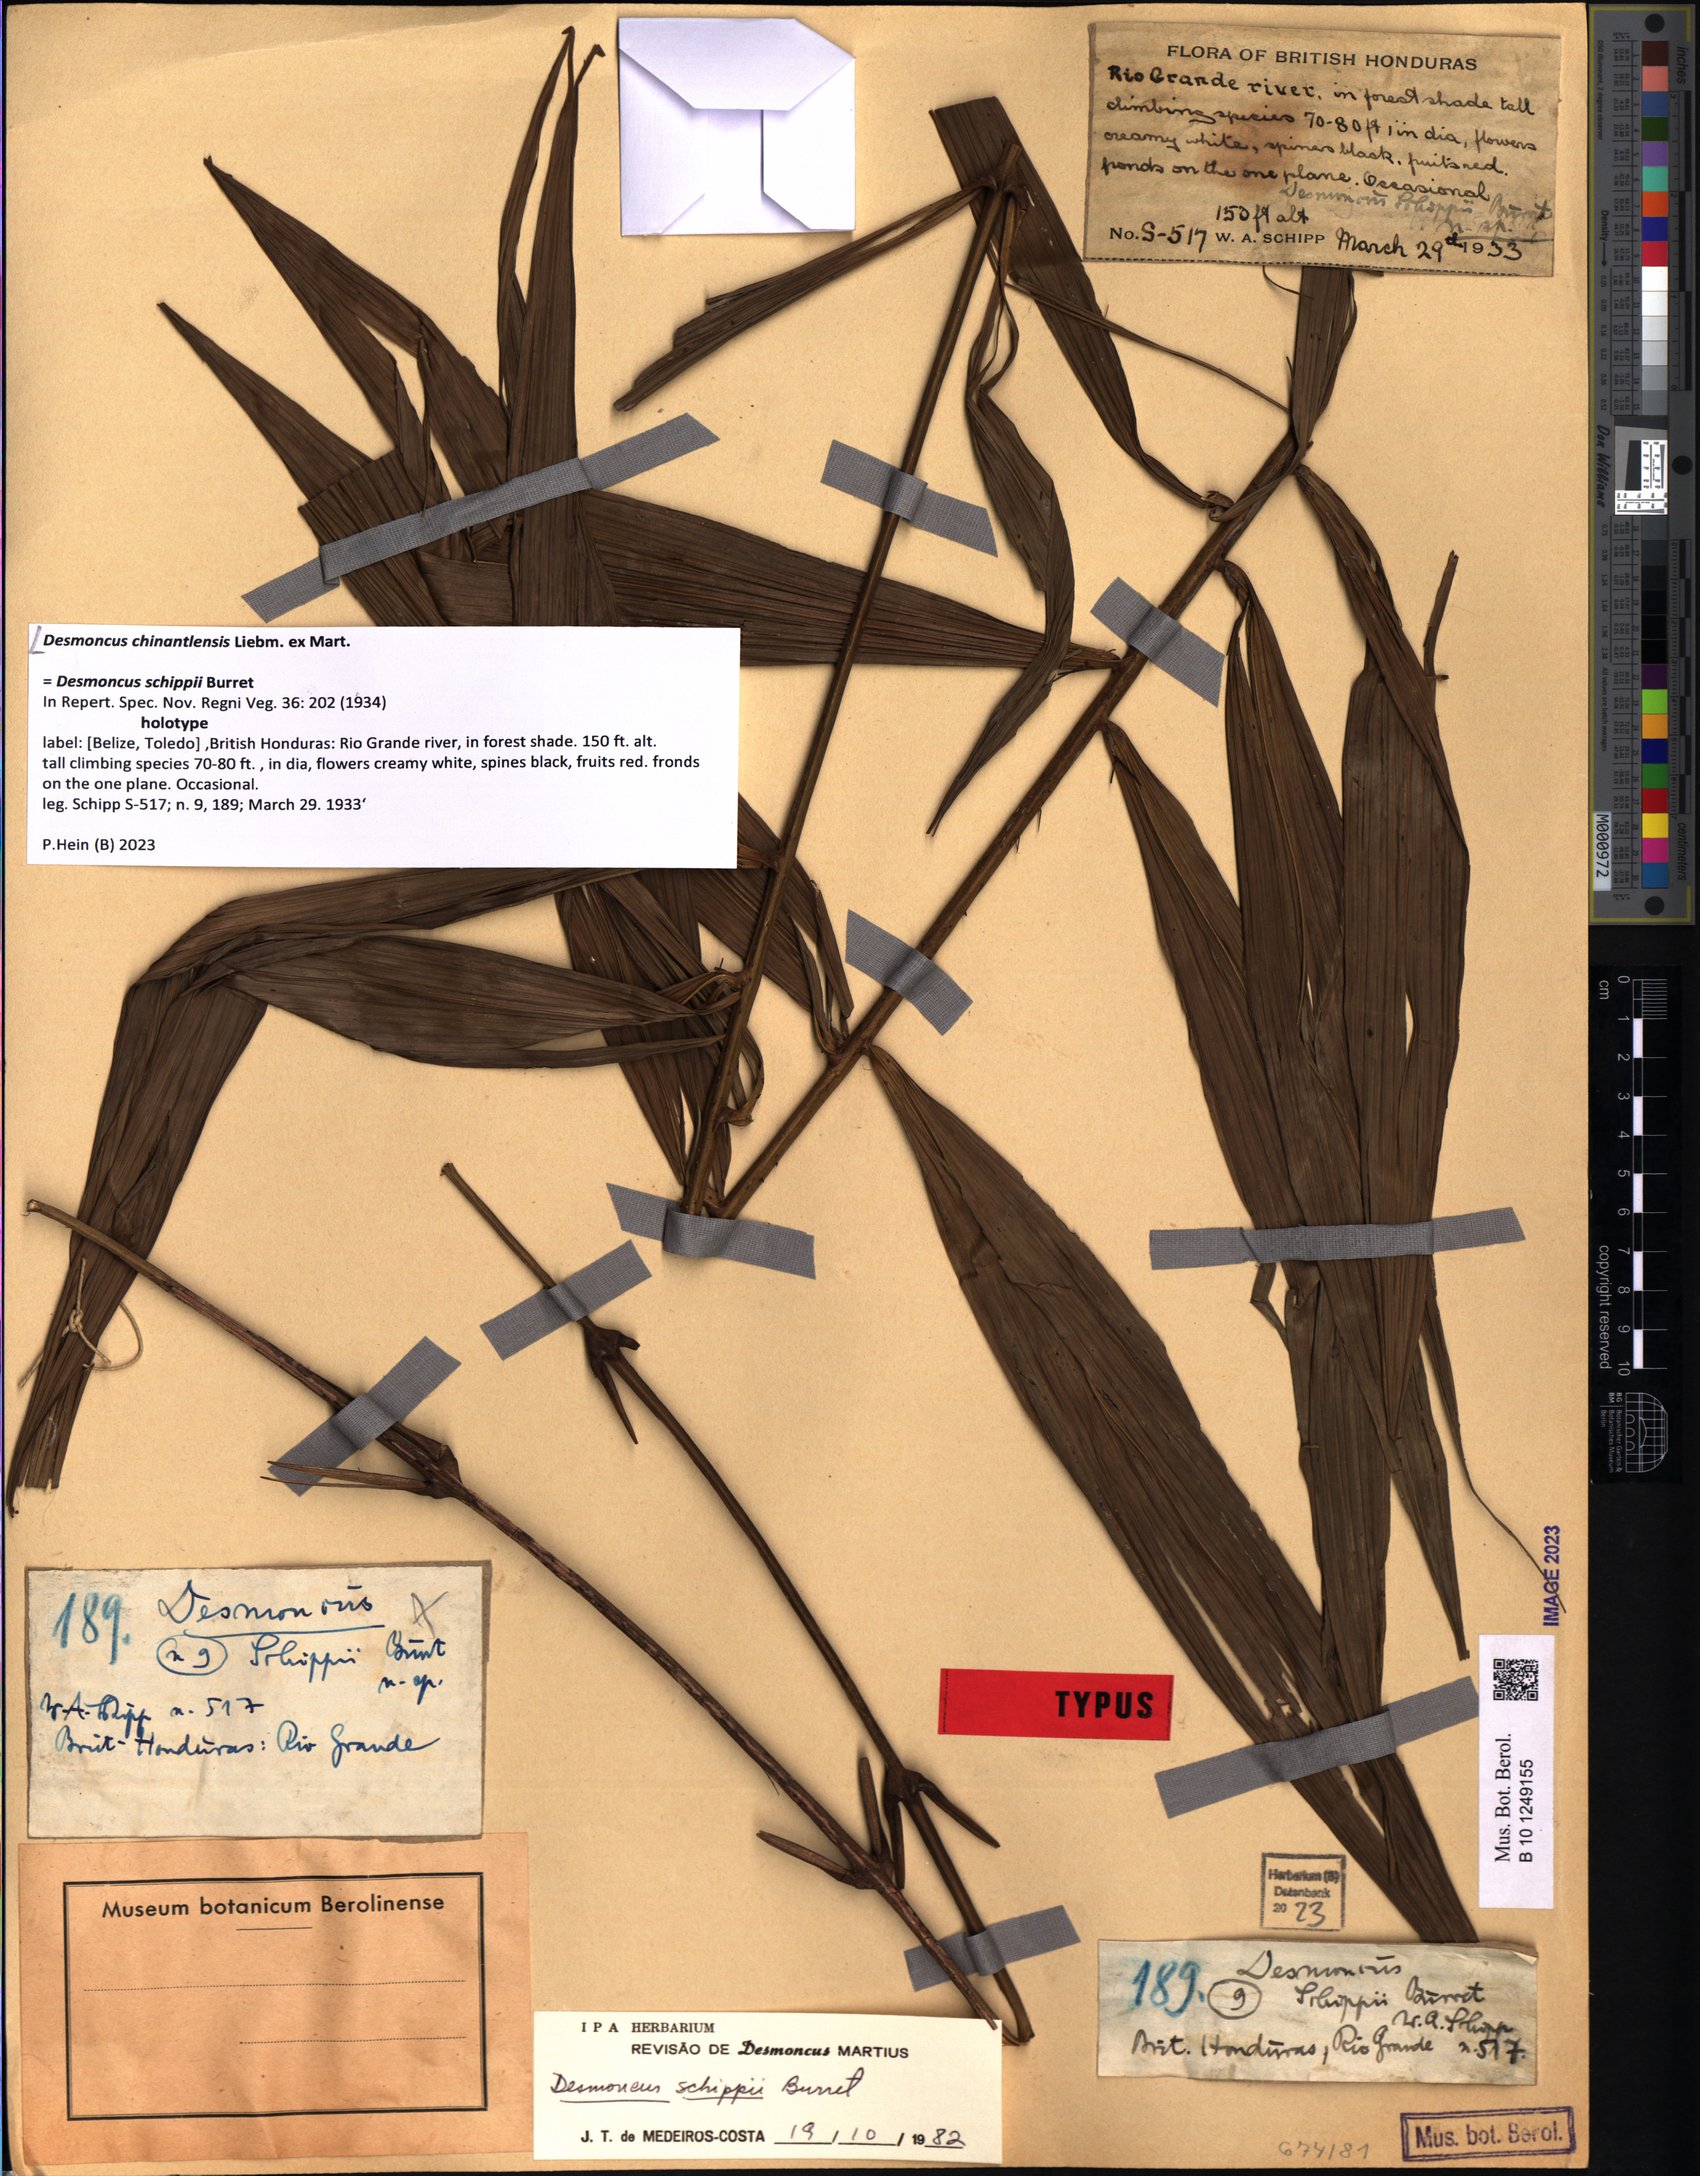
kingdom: Plantae
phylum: Tracheophyta
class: Liliopsida
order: Arecales
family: Arecaceae
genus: Desmoncus
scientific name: Desmoncus chinantlensis
